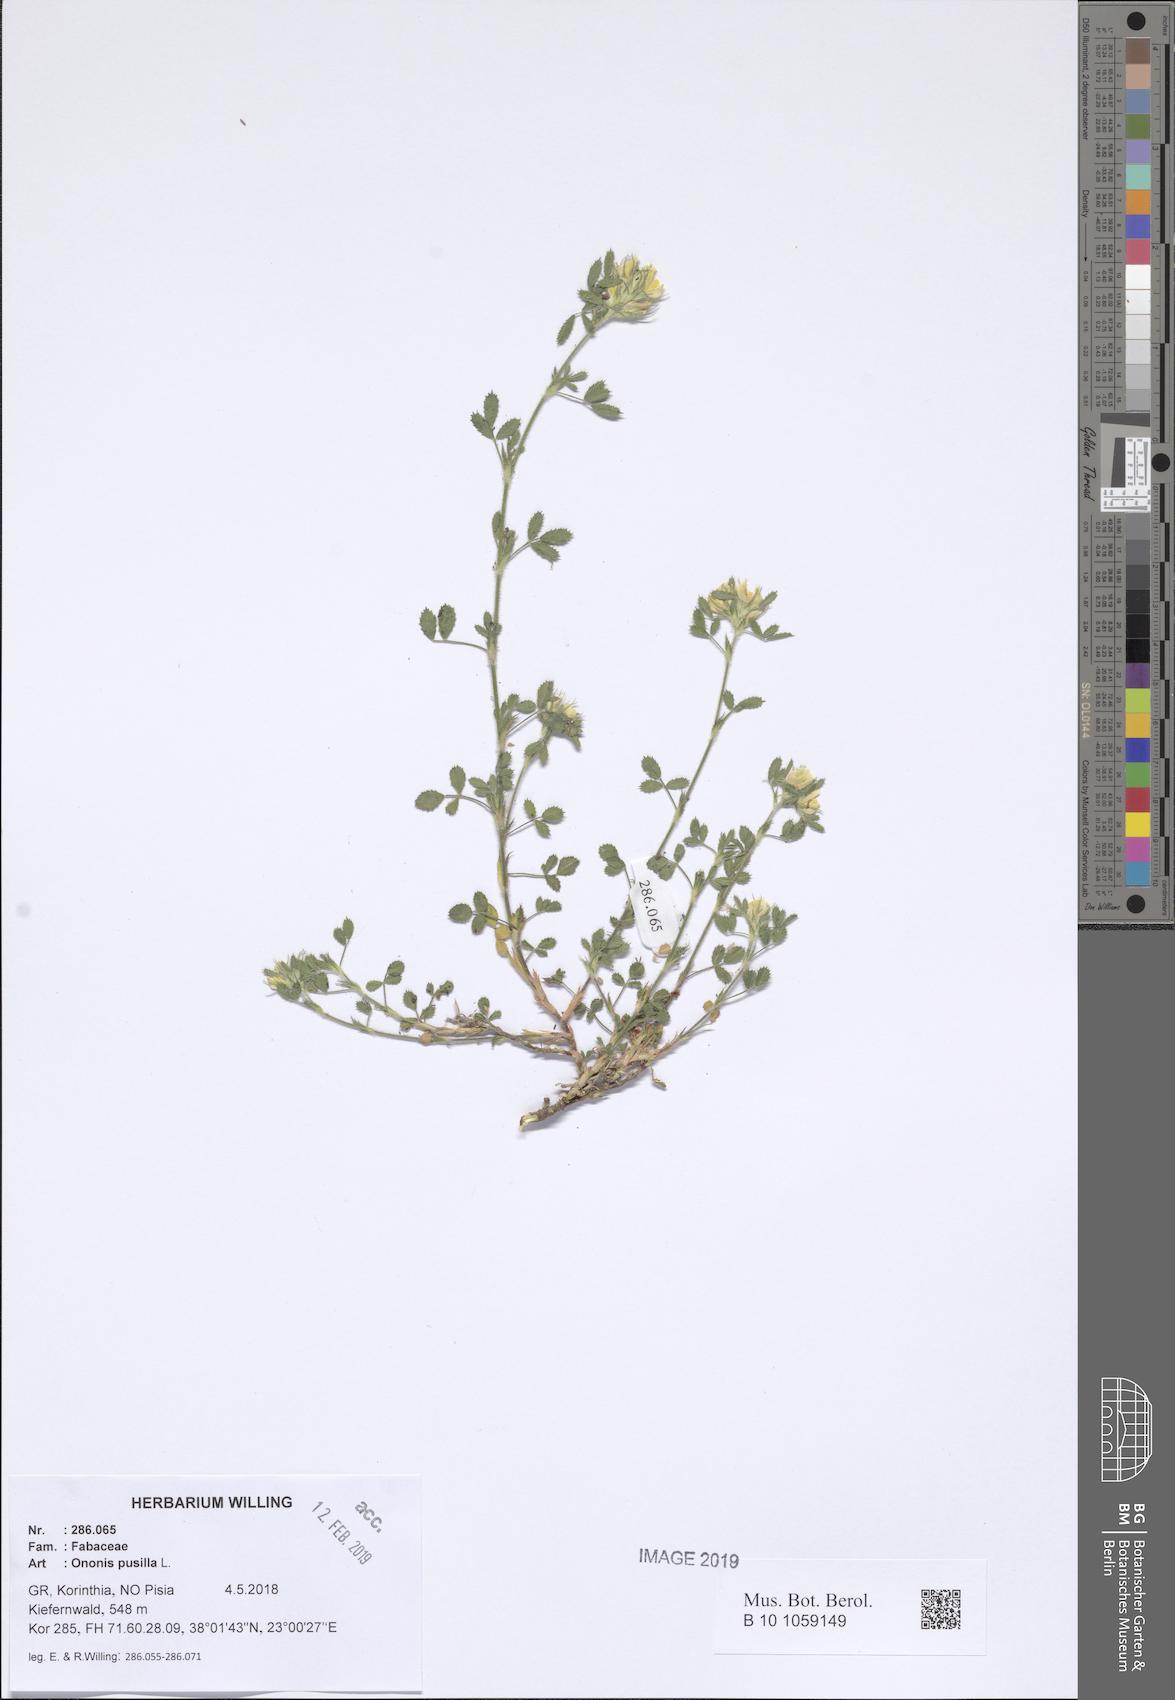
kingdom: Plantae
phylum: Tracheophyta
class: Magnoliopsida
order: Fabales
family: Fabaceae
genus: Ononis
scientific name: Ononis pusilla
